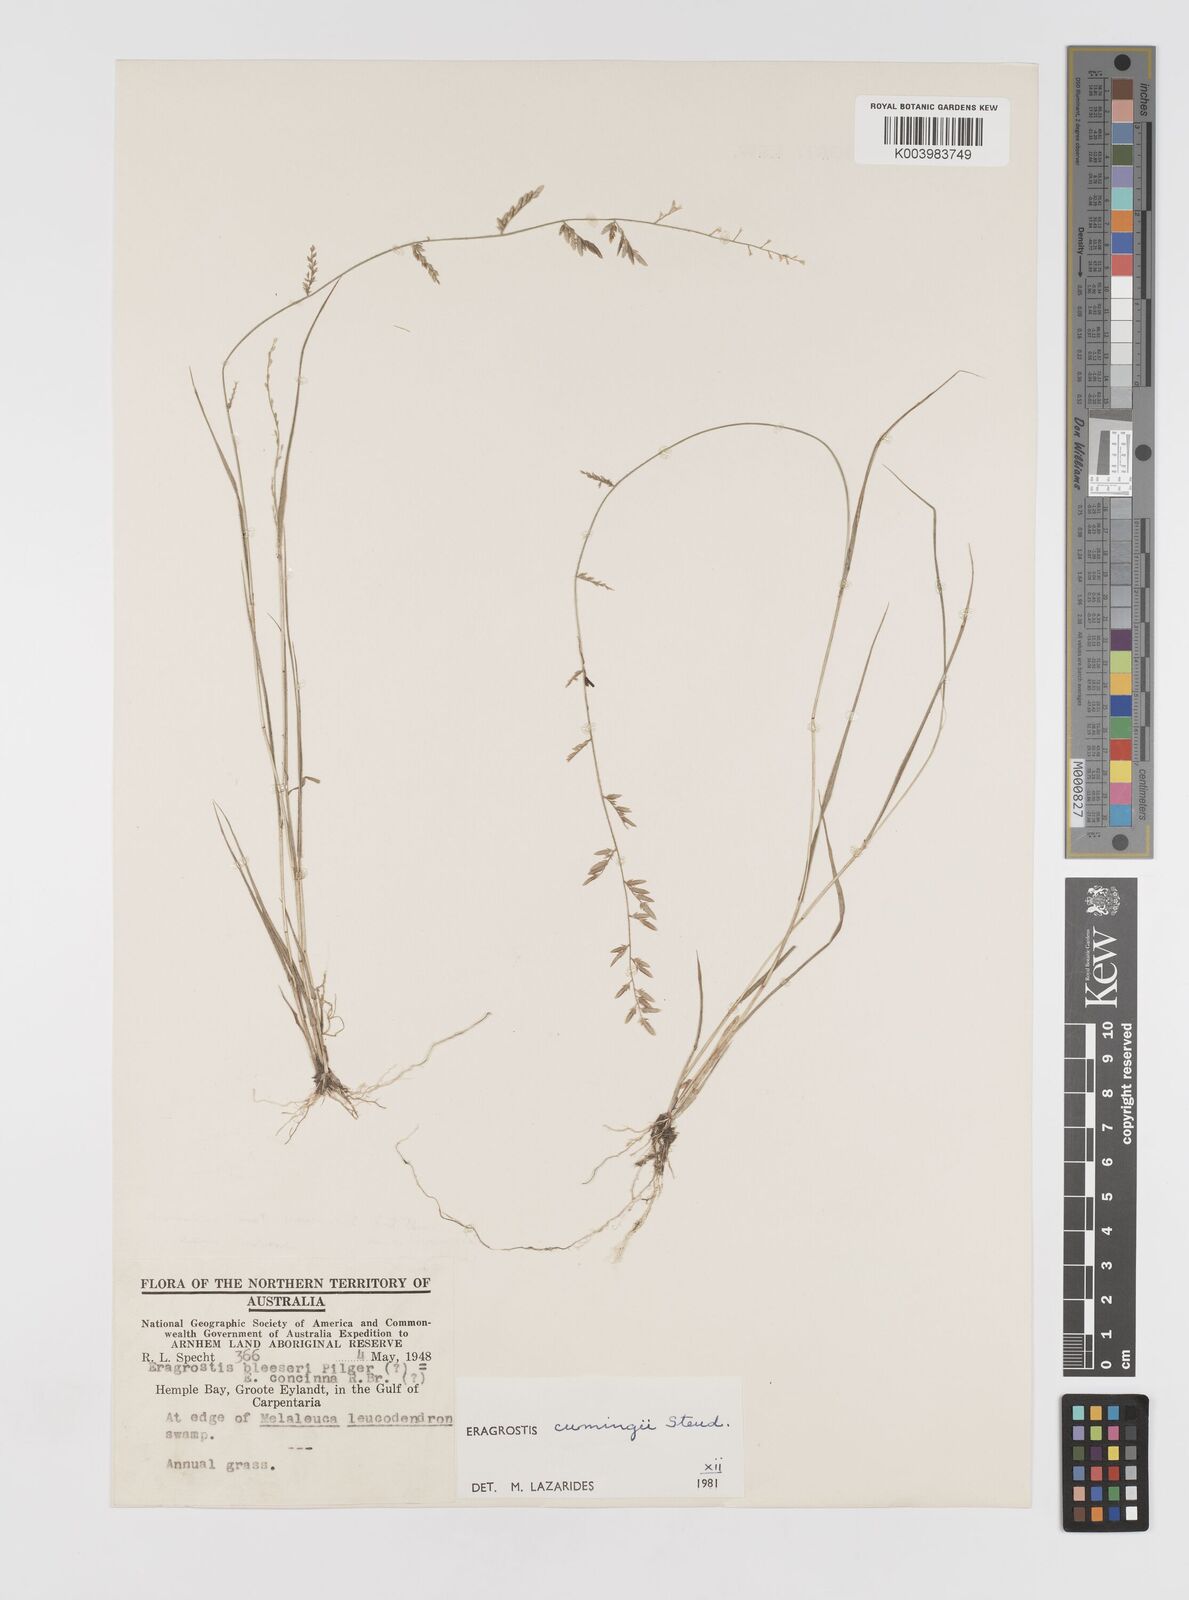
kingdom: Plantae
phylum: Tracheophyta
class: Liliopsida
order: Poales
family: Poaceae
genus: Eragrostis
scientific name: Eragrostis cumingii
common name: Cuming's lovegrass
